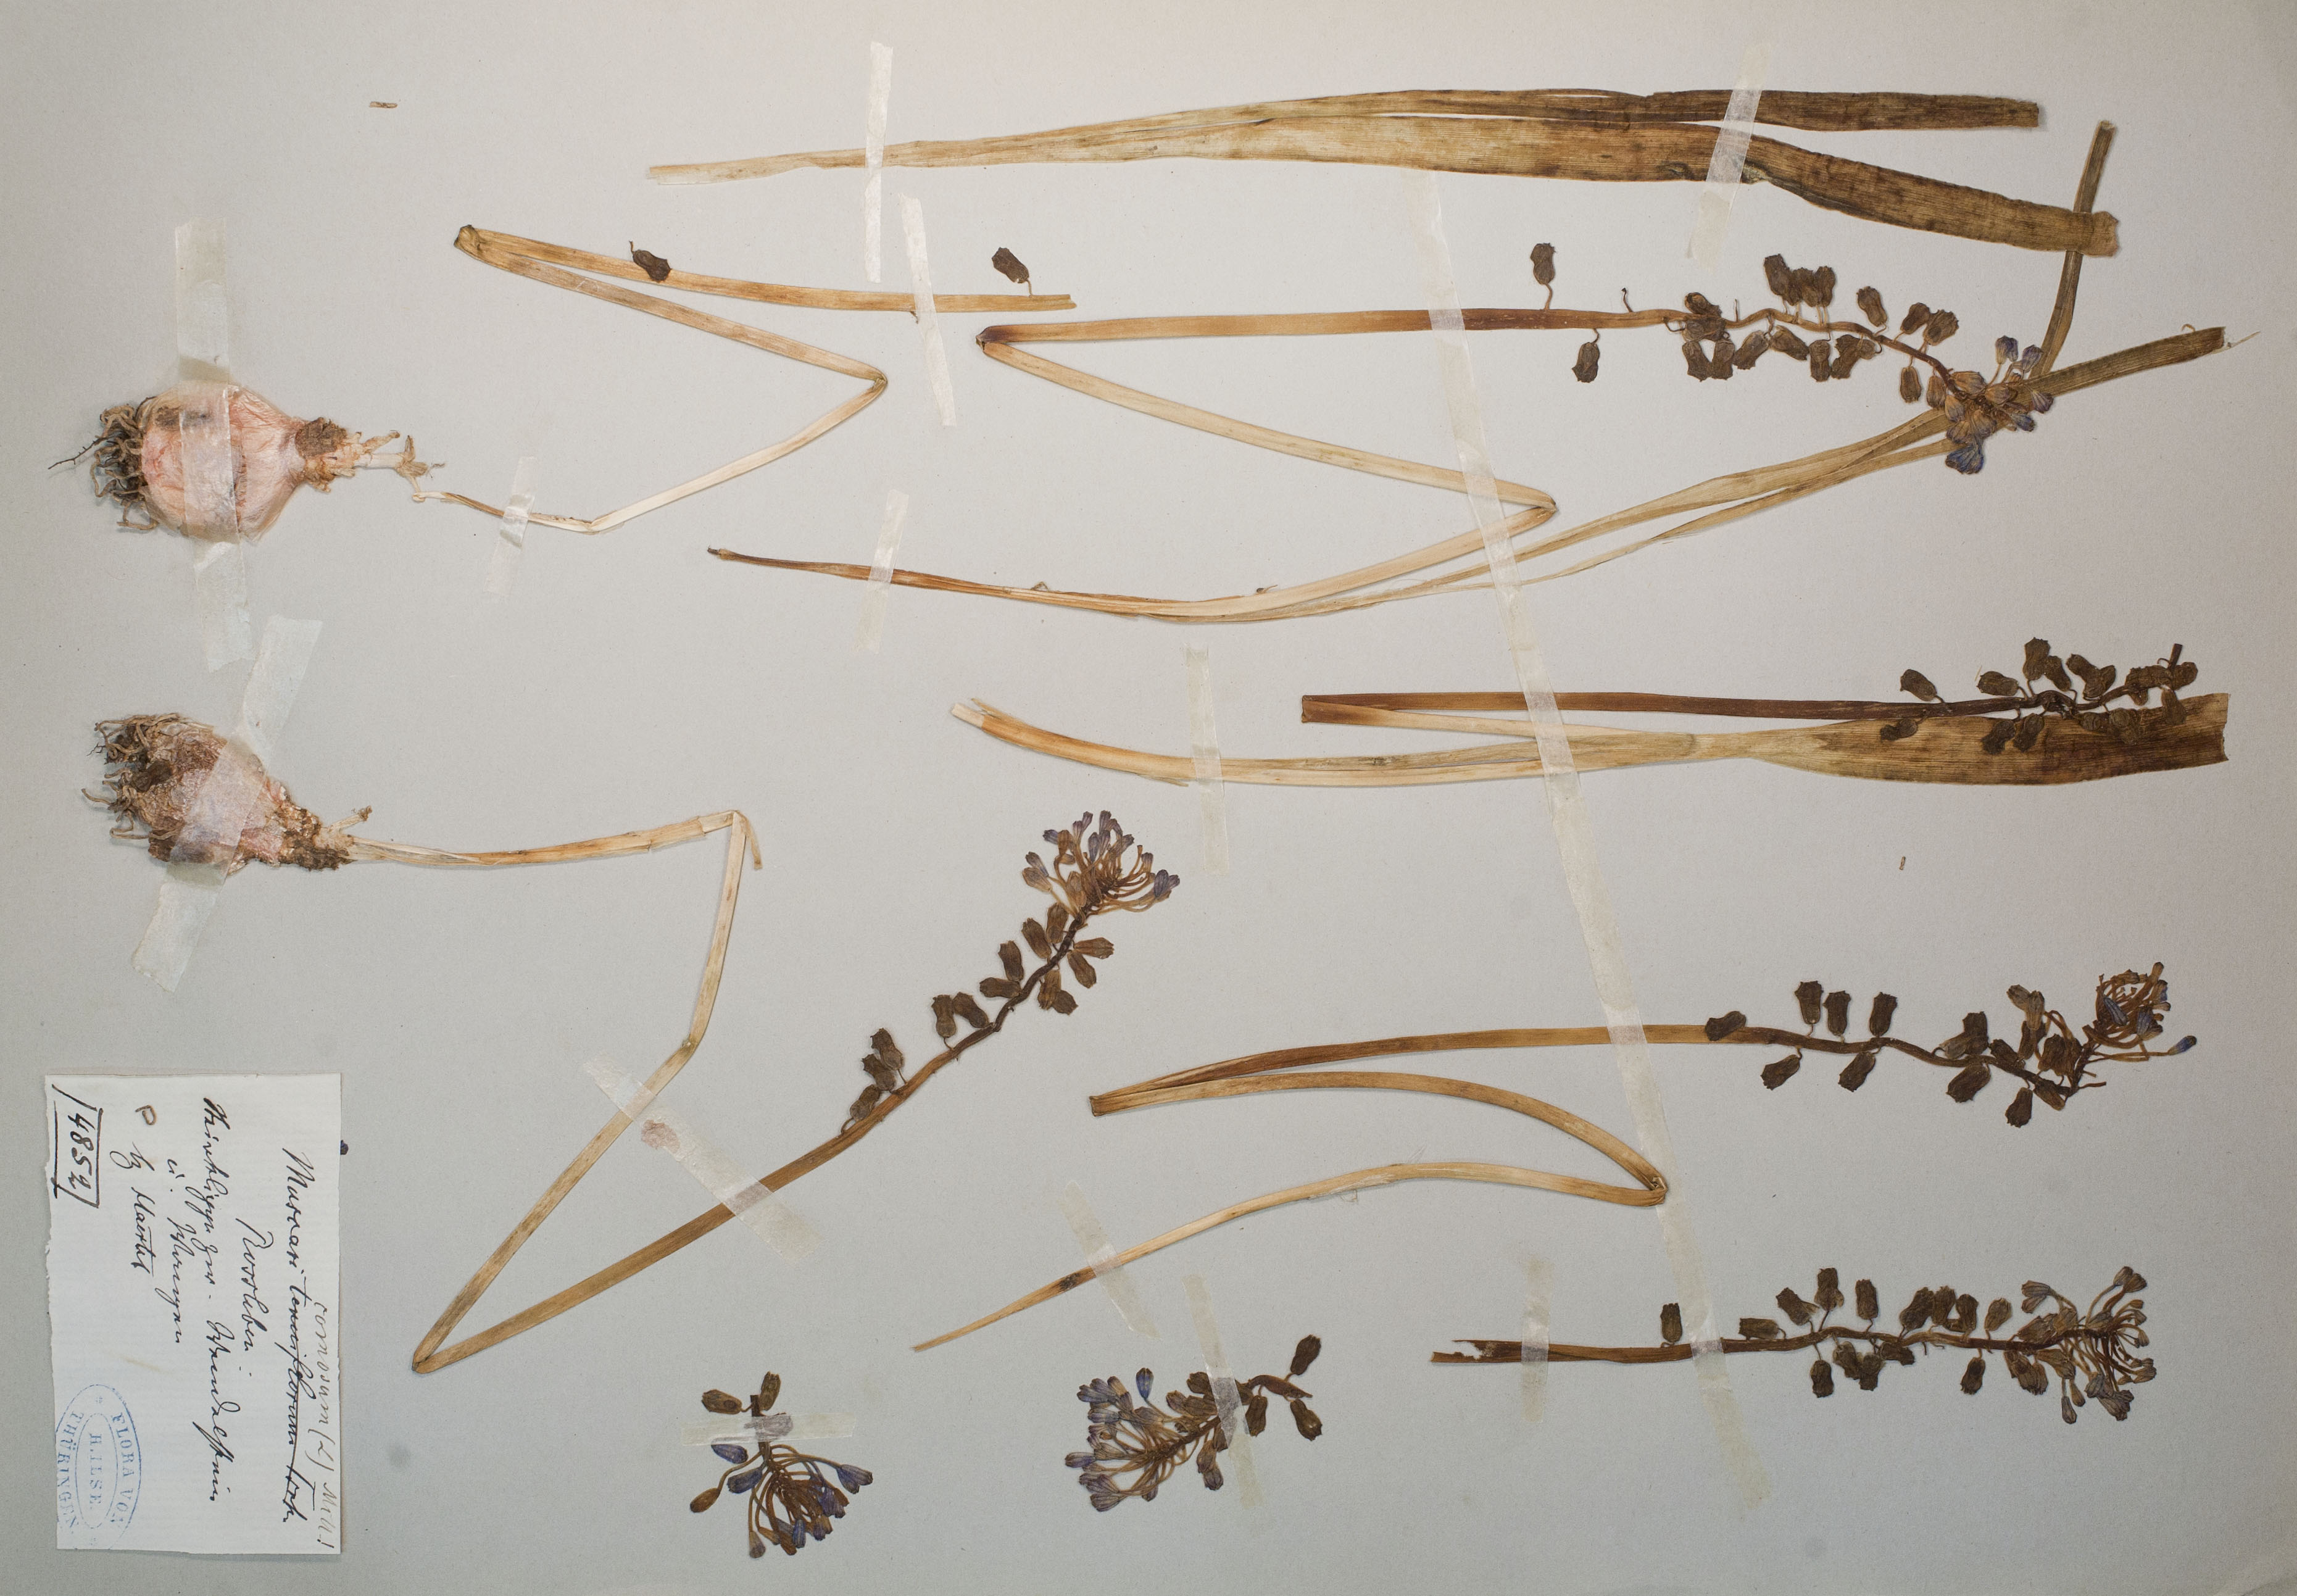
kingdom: Plantae
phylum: Tracheophyta
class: Liliopsida
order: Asparagales
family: Asparagaceae
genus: Muscari
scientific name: Muscari comosum
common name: Tassel hyacinth
